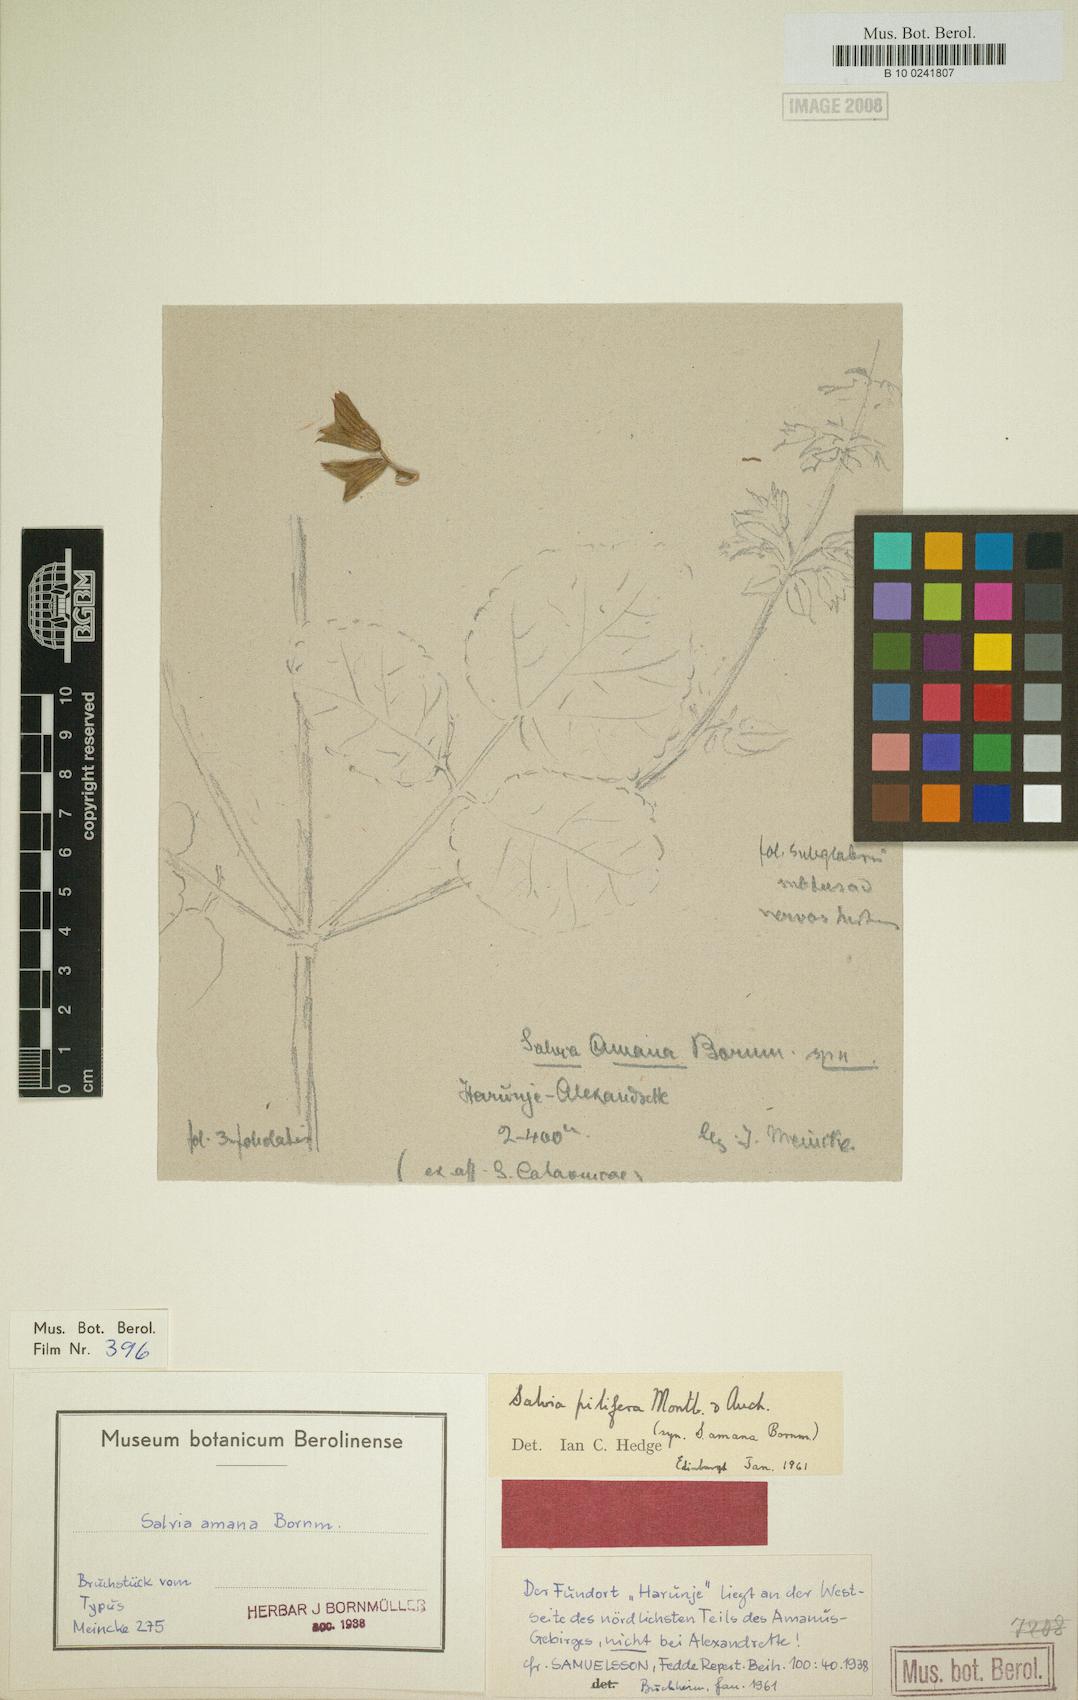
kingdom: Plantae
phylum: Tracheophyta
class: Magnoliopsida
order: Lamiales
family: Lamiaceae
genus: Salvia
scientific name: Salvia pilifera
